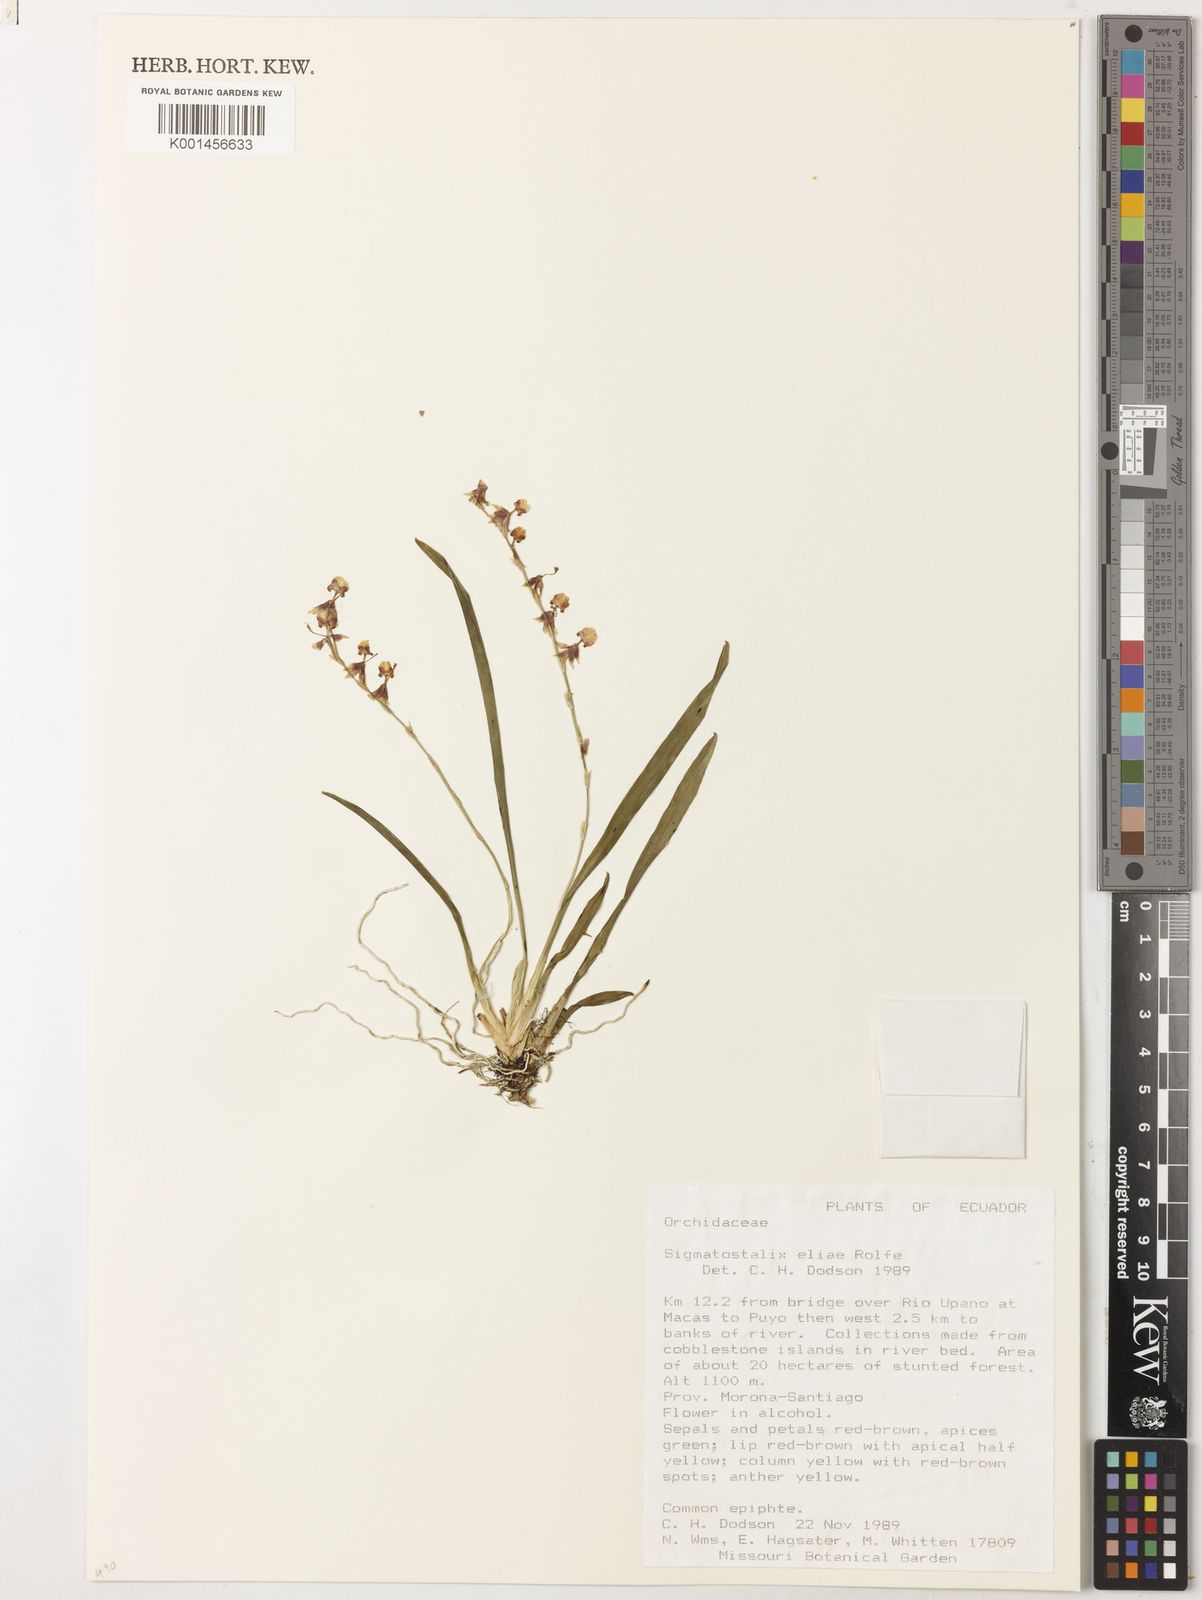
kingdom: Plantae
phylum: Tracheophyta
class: Liliopsida
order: Asparagales
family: Orchidaceae
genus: Oncidium
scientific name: Oncidium eliae
